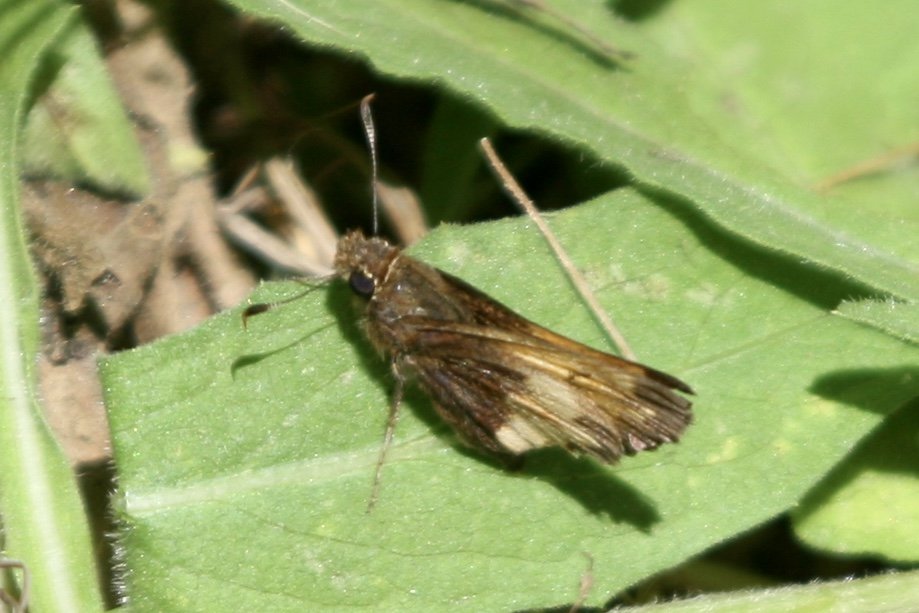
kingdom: Animalia
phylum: Arthropoda
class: Insecta
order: Lepidoptera
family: Hesperiidae
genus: Lon
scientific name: Lon hobomok
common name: Hobomok Skipper
